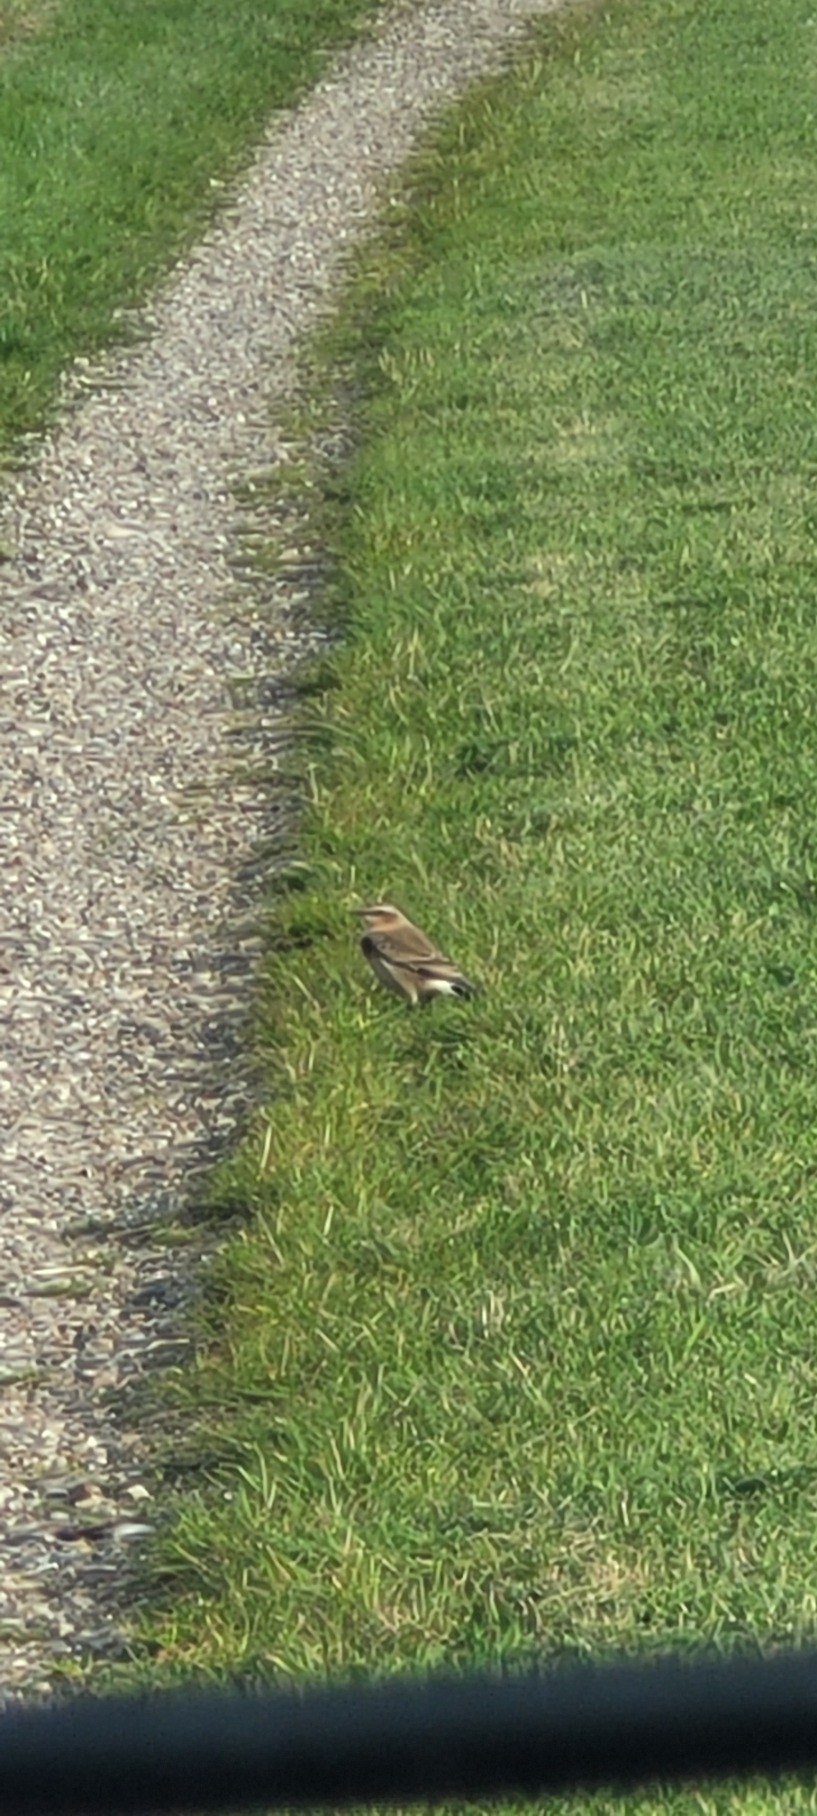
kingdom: Animalia
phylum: Chordata
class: Aves
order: Passeriformes
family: Muscicapidae
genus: Oenanthe
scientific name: Oenanthe oenanthe
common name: Stenpikker
